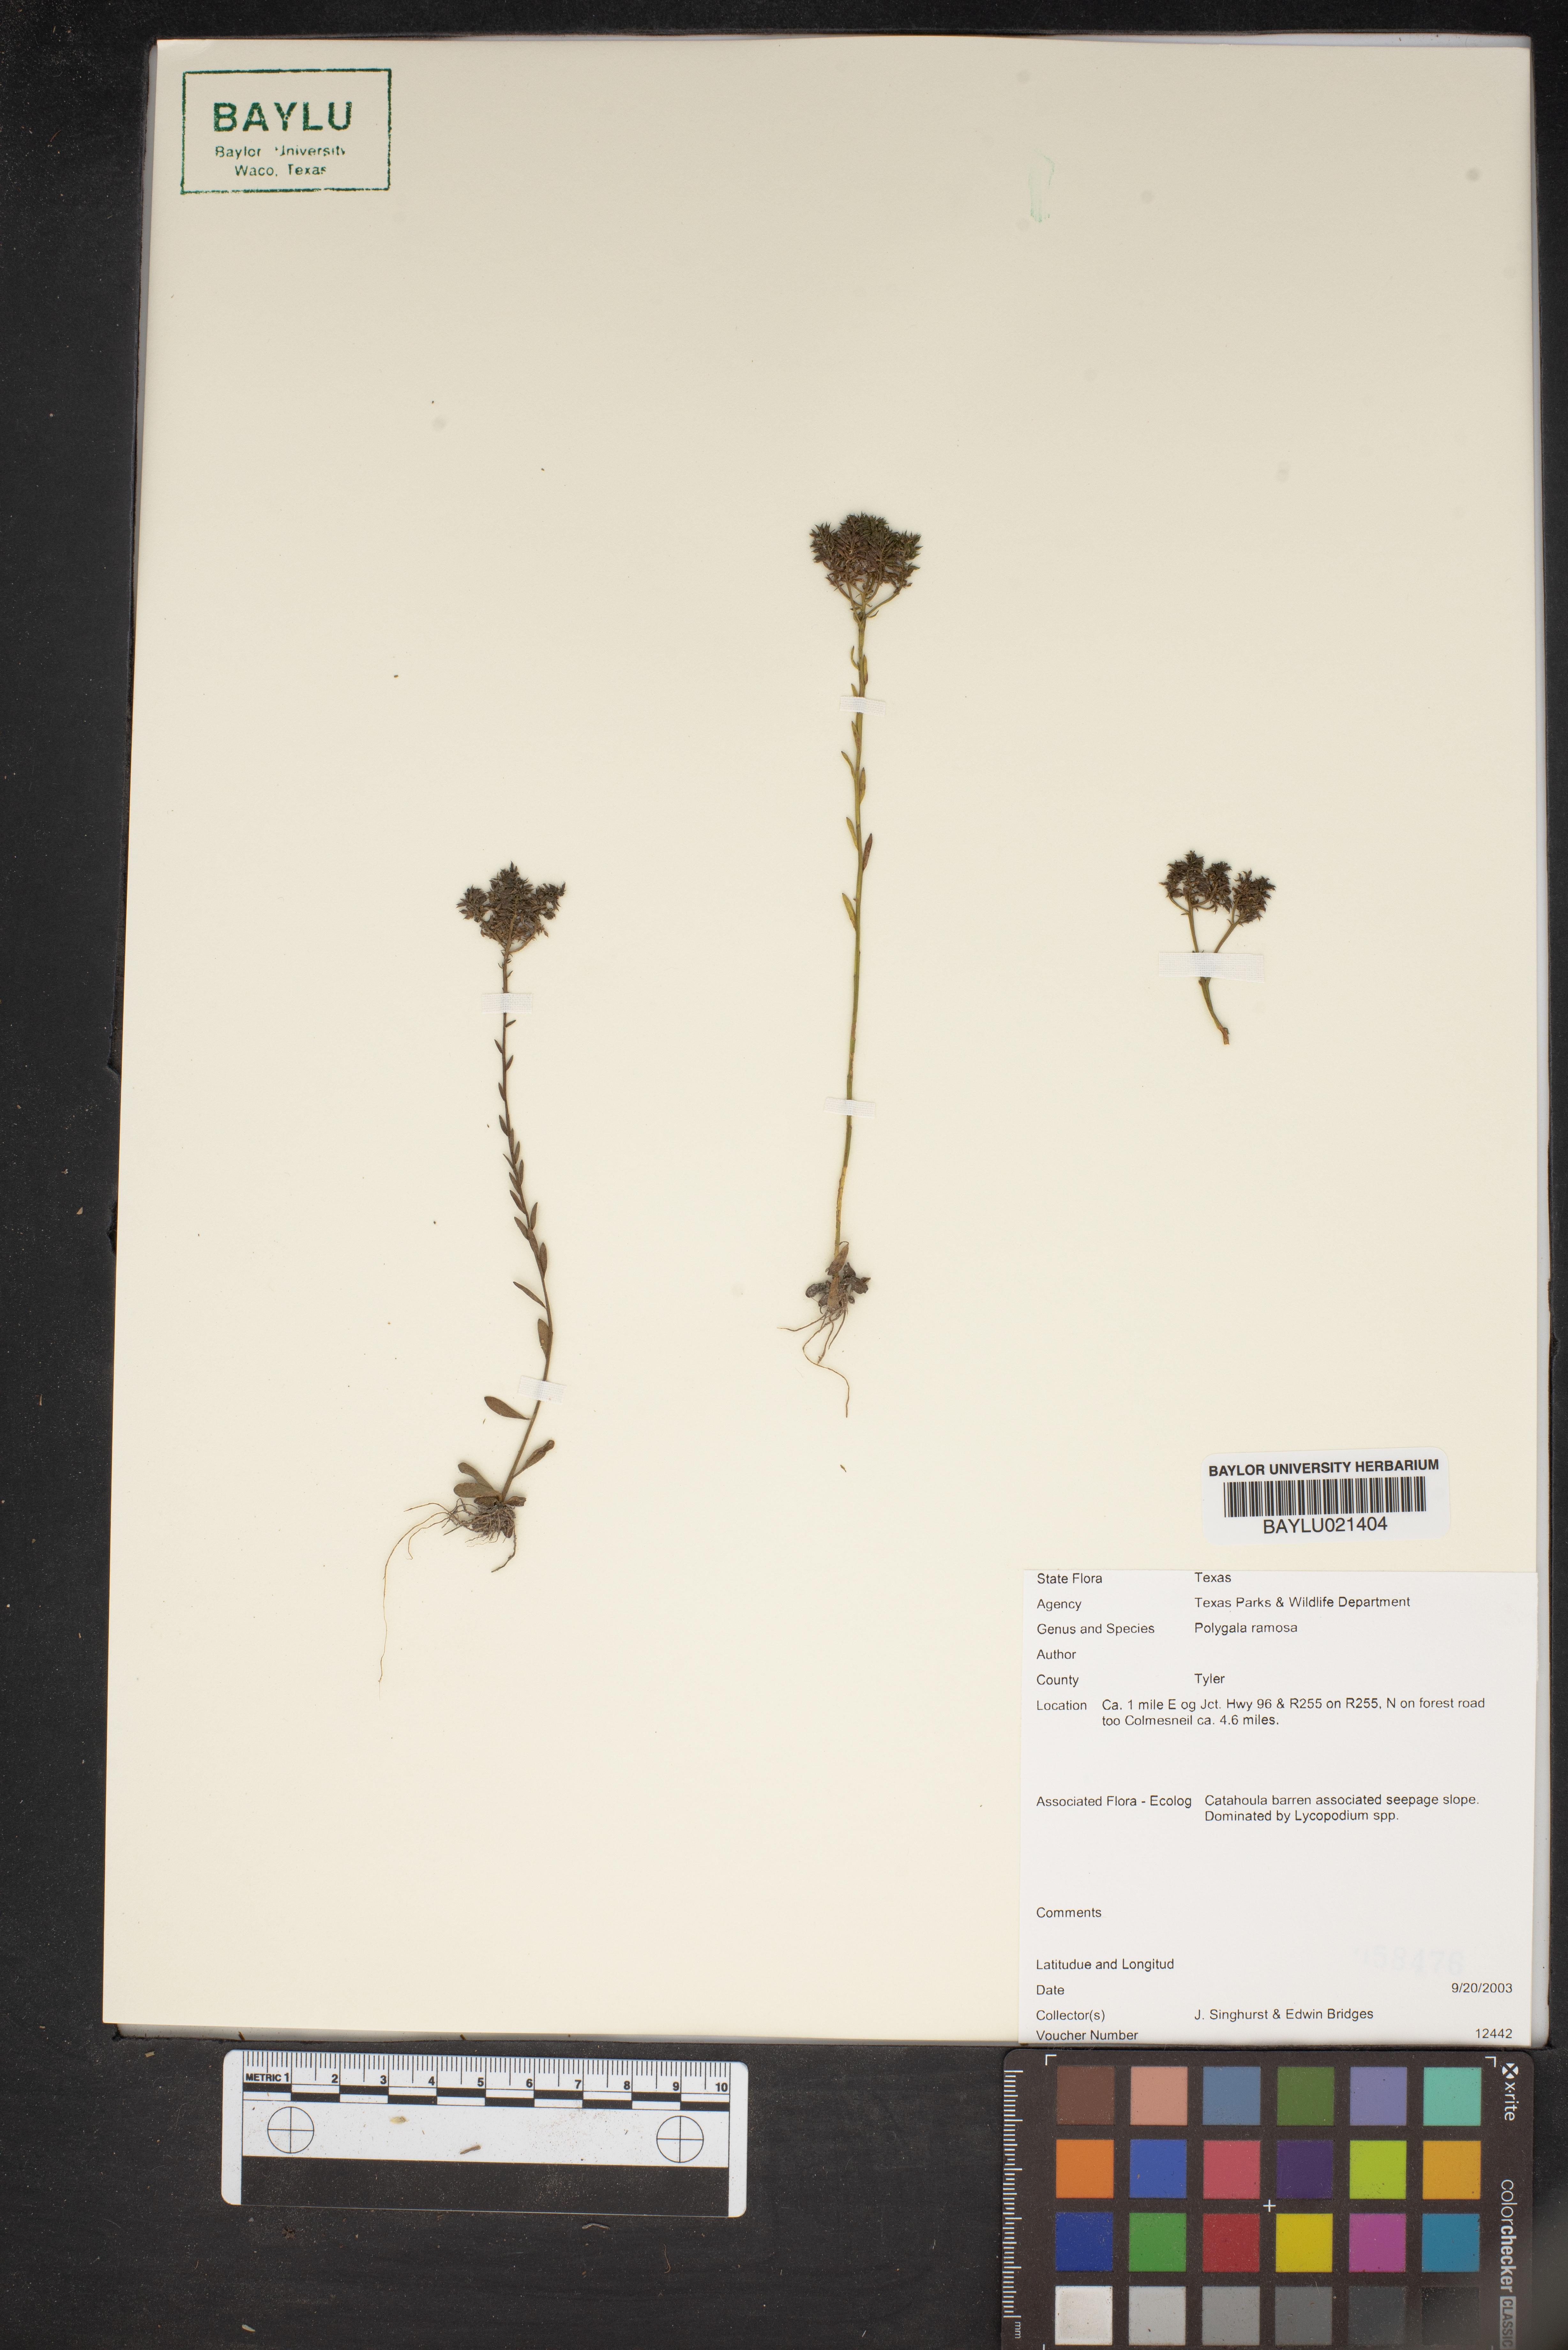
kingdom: Plantae
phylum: Tracheophyta
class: Magnoliopsida
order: Fabales
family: Polygalaceae
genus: Polygala
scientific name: Polygala ramosa
